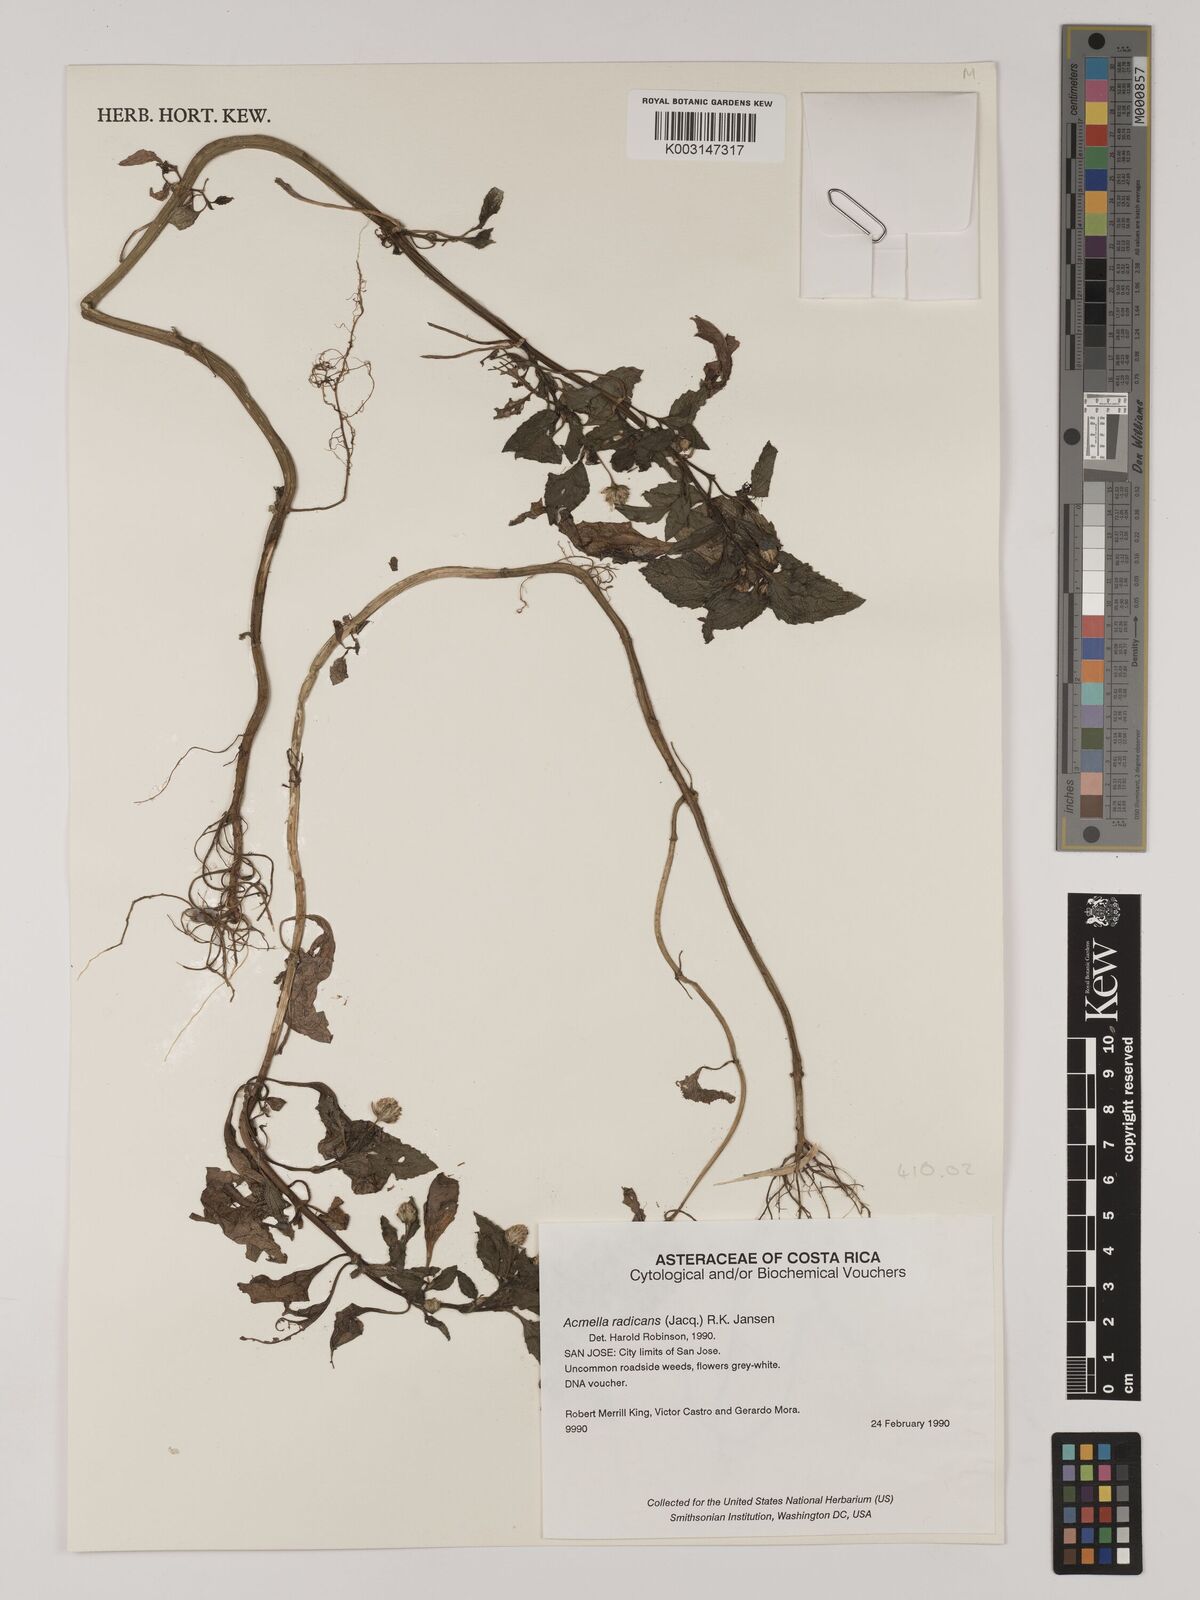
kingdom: Plantae
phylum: Tracheophyta
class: Magnoliopsida
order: Asterales
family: Asteraceae
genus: Acmella
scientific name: Acmella radicans
